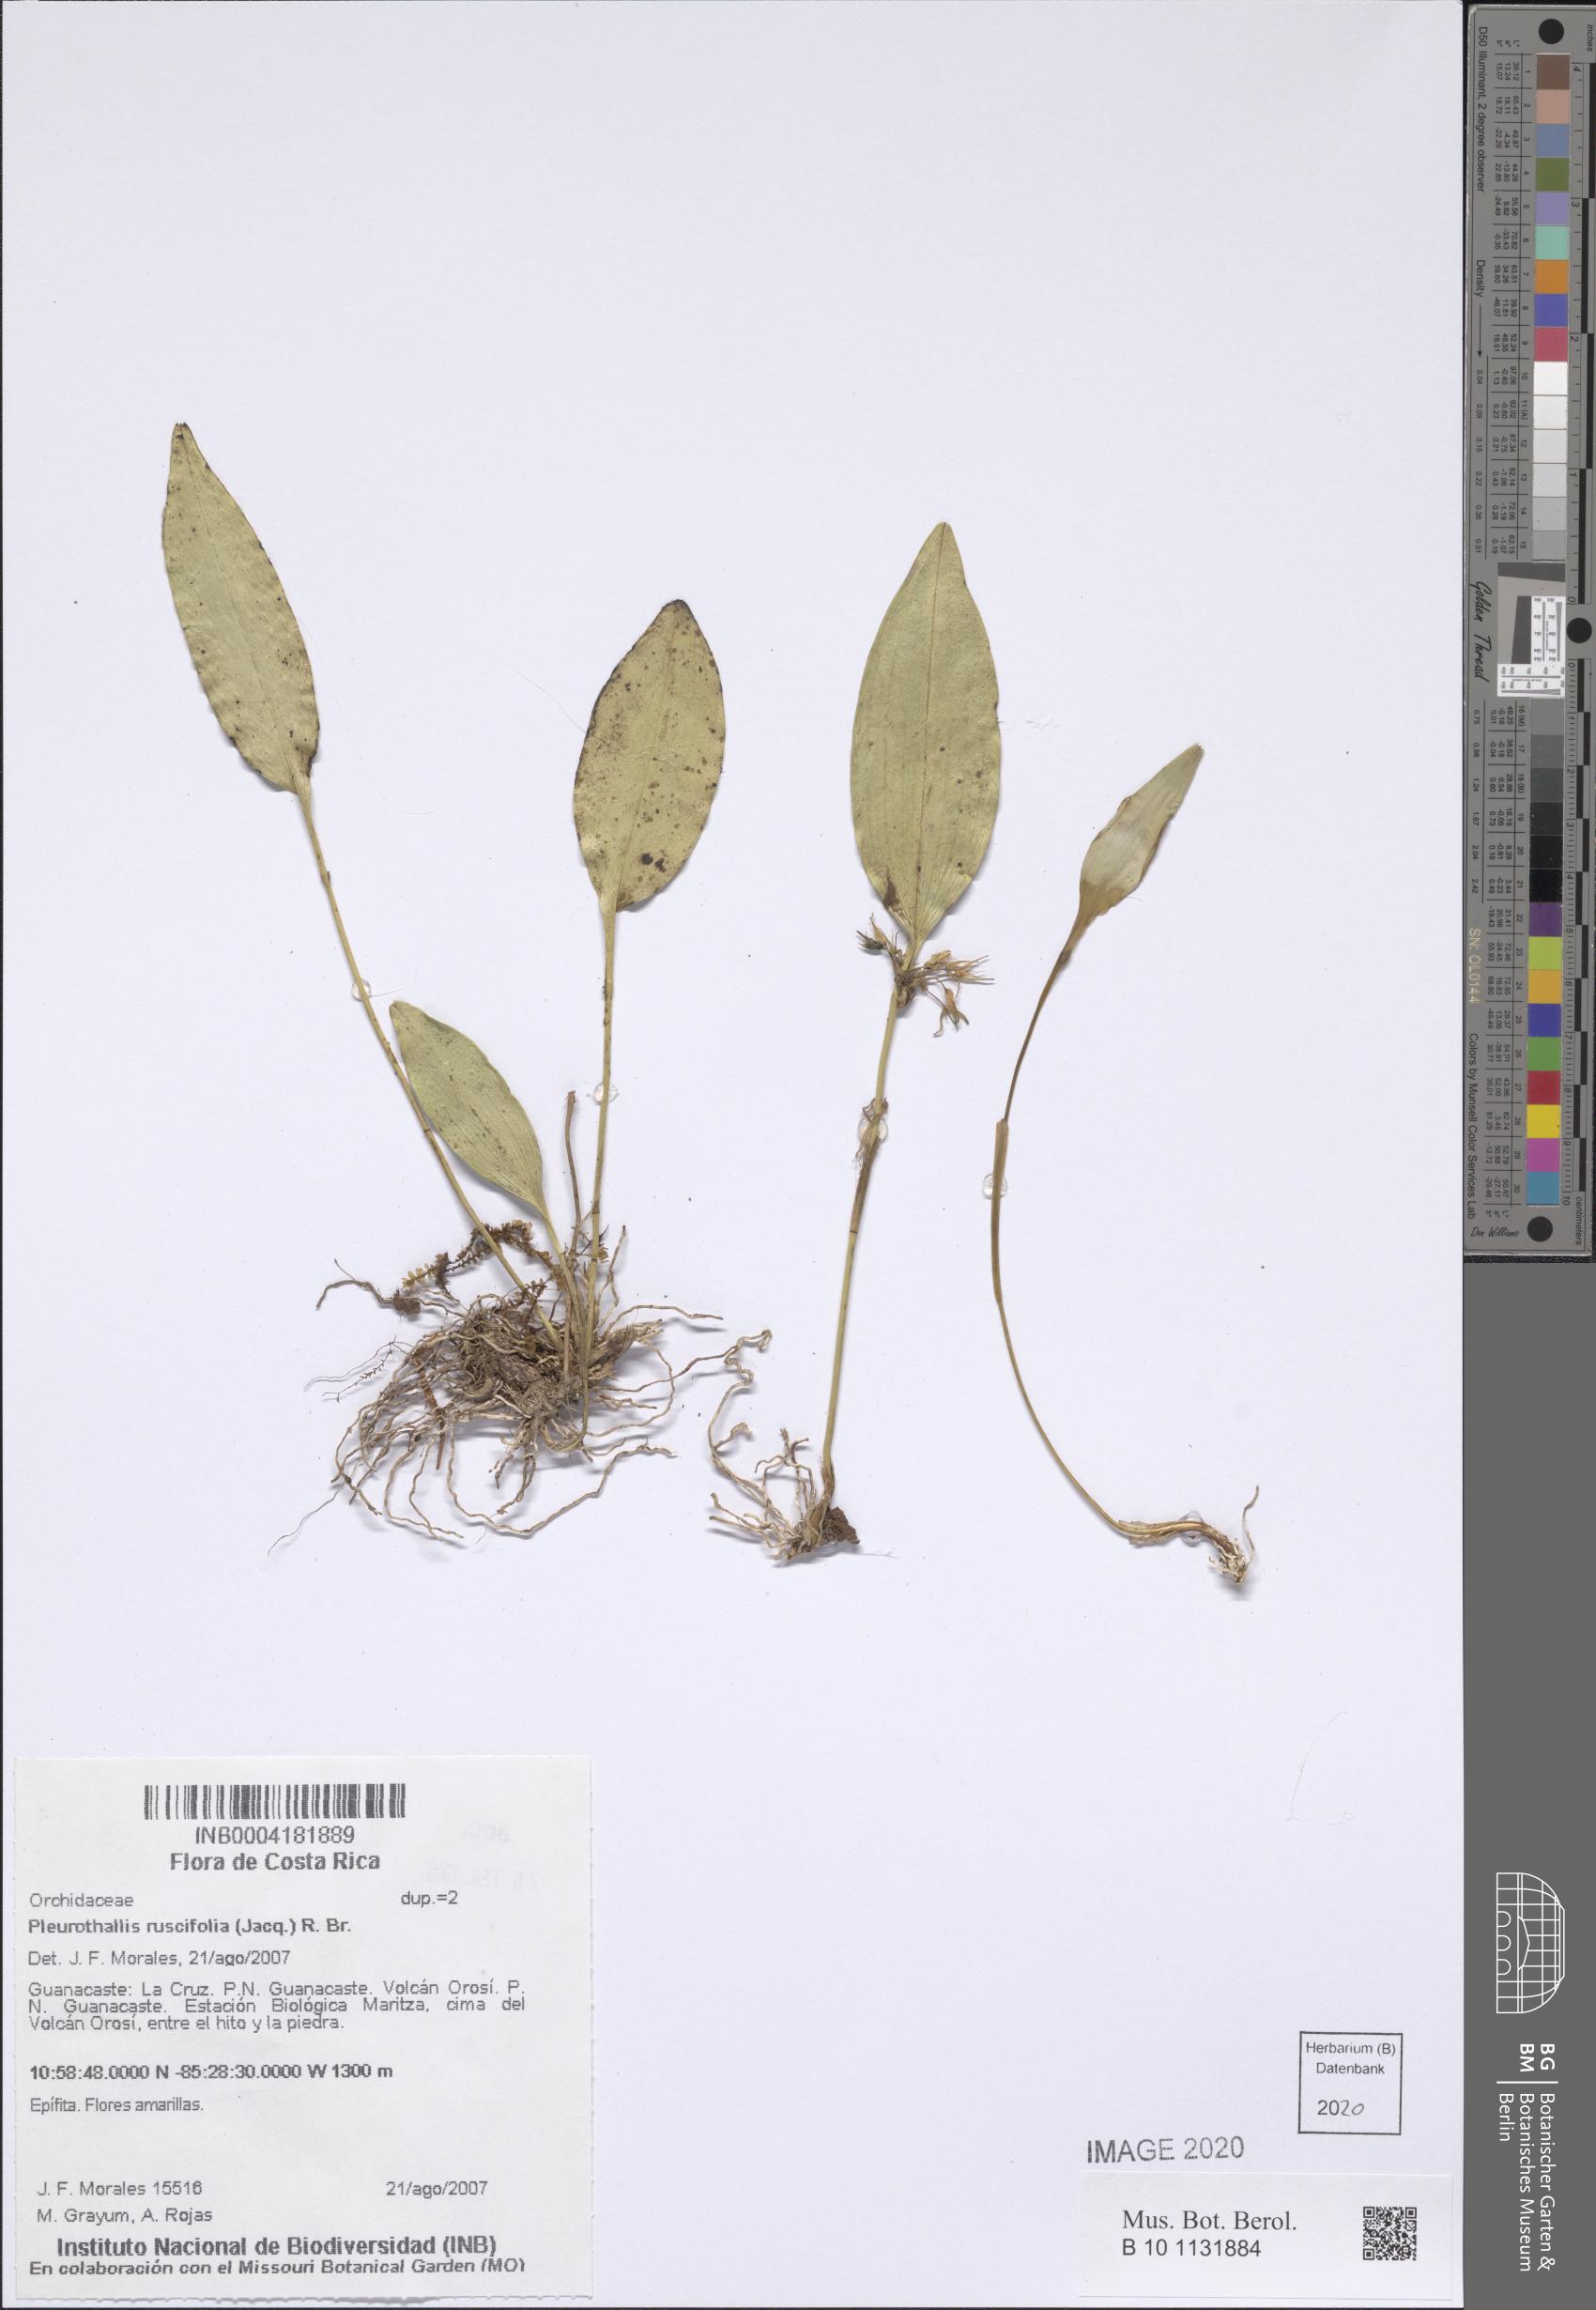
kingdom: Plantae
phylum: Tracheophyta
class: Liliopsida
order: Asparagales
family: Orchidaceae
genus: Pleurothallis
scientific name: Pleurothallis ruscifolia
